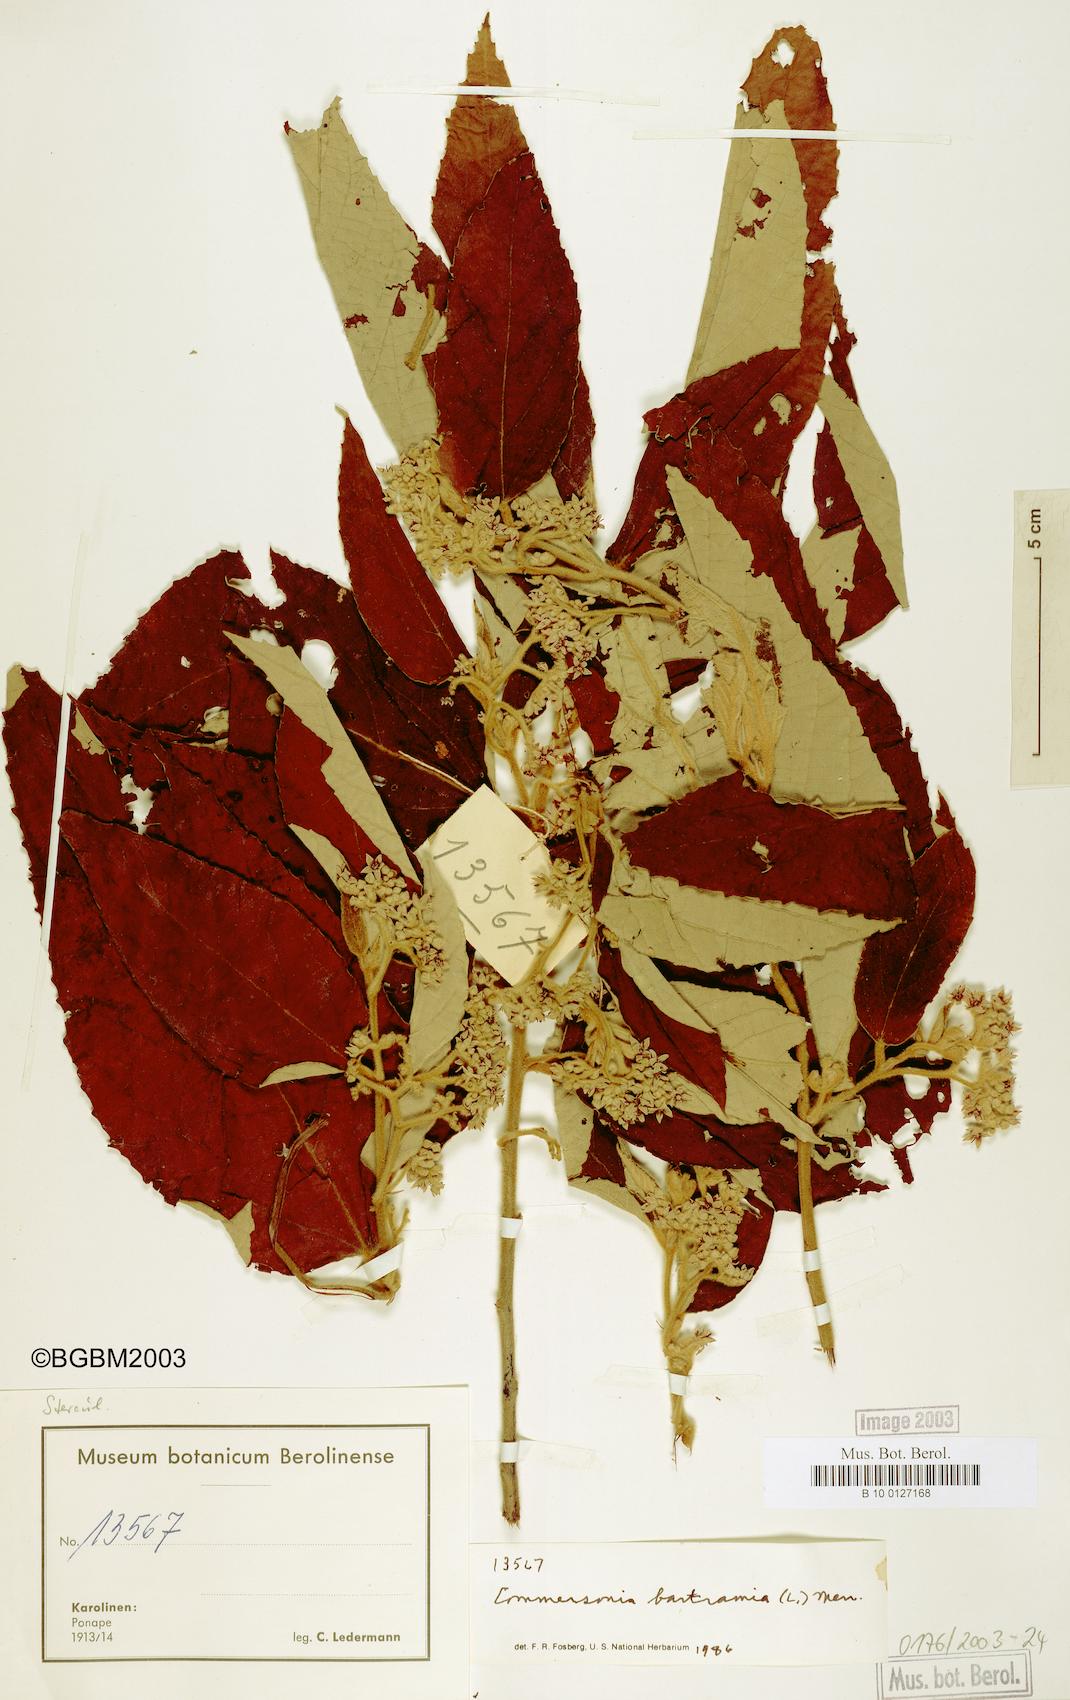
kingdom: Plantae
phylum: Tracheophyta
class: Magnoliopsida
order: Malvales
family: Malvaceae
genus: Commersonia
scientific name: Commersonia bartramia
